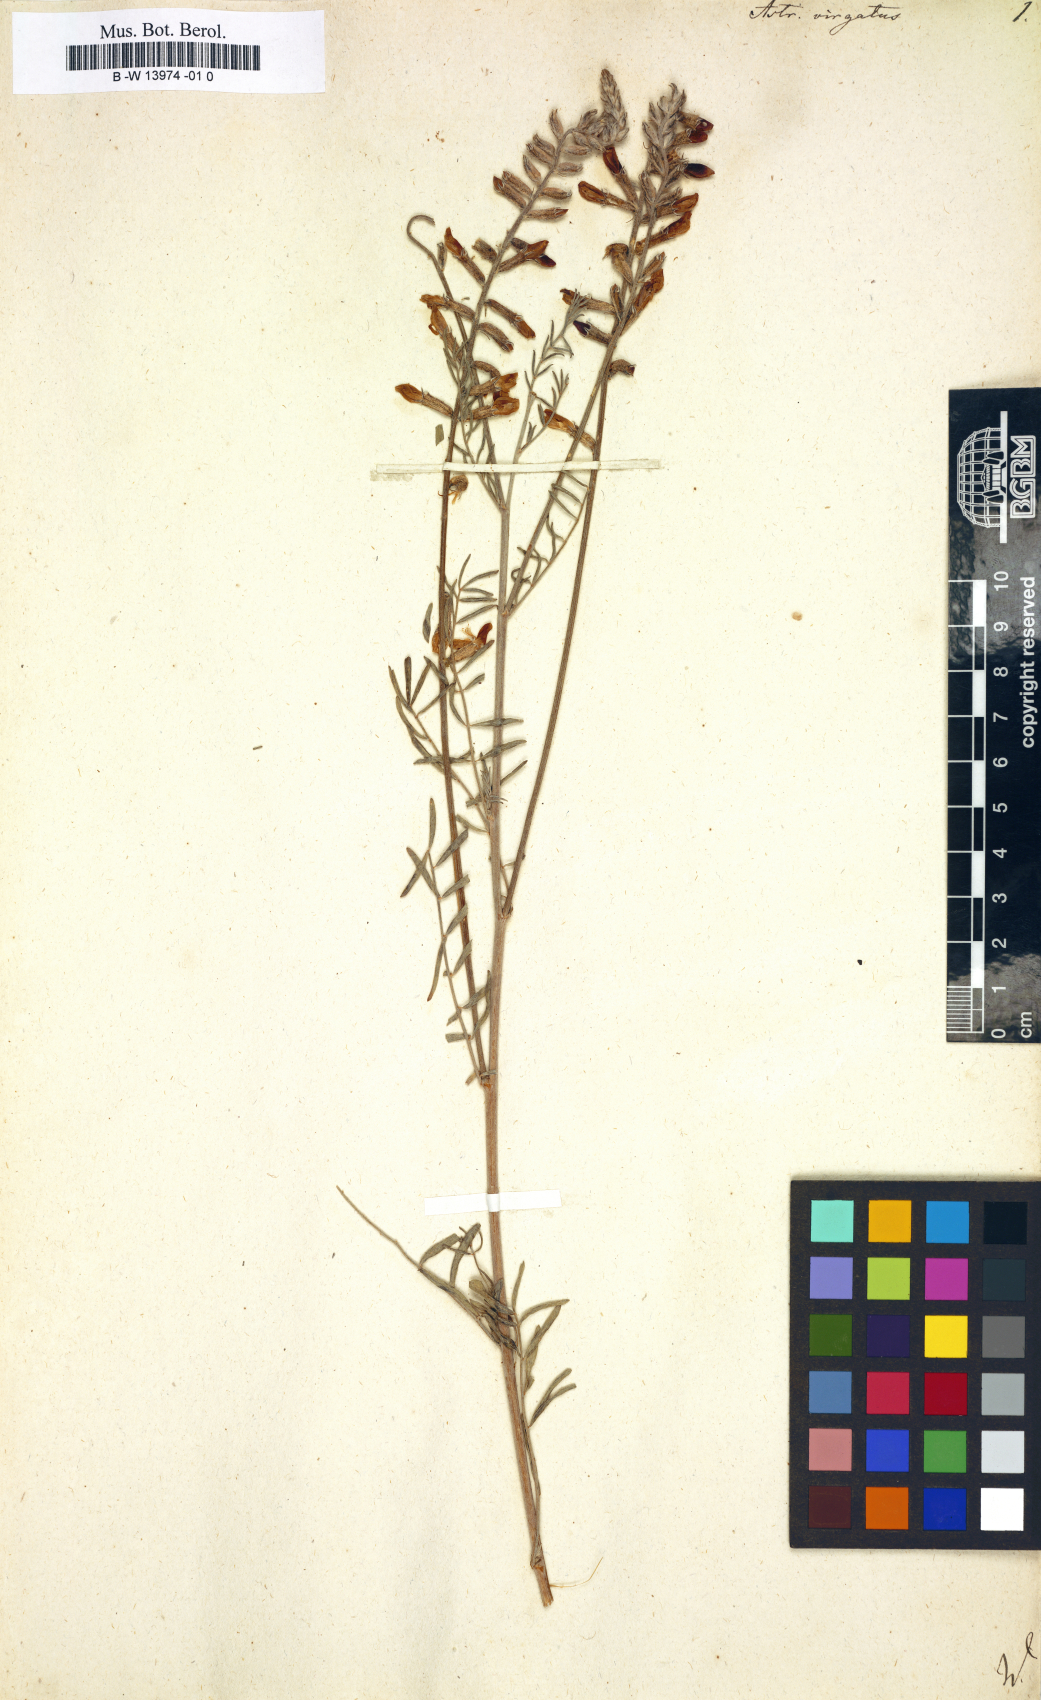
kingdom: Plantae
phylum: Tracheophyta
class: Magnoliopsida
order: Fabales
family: Fabaceae
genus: Astragalus
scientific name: Astragalus
